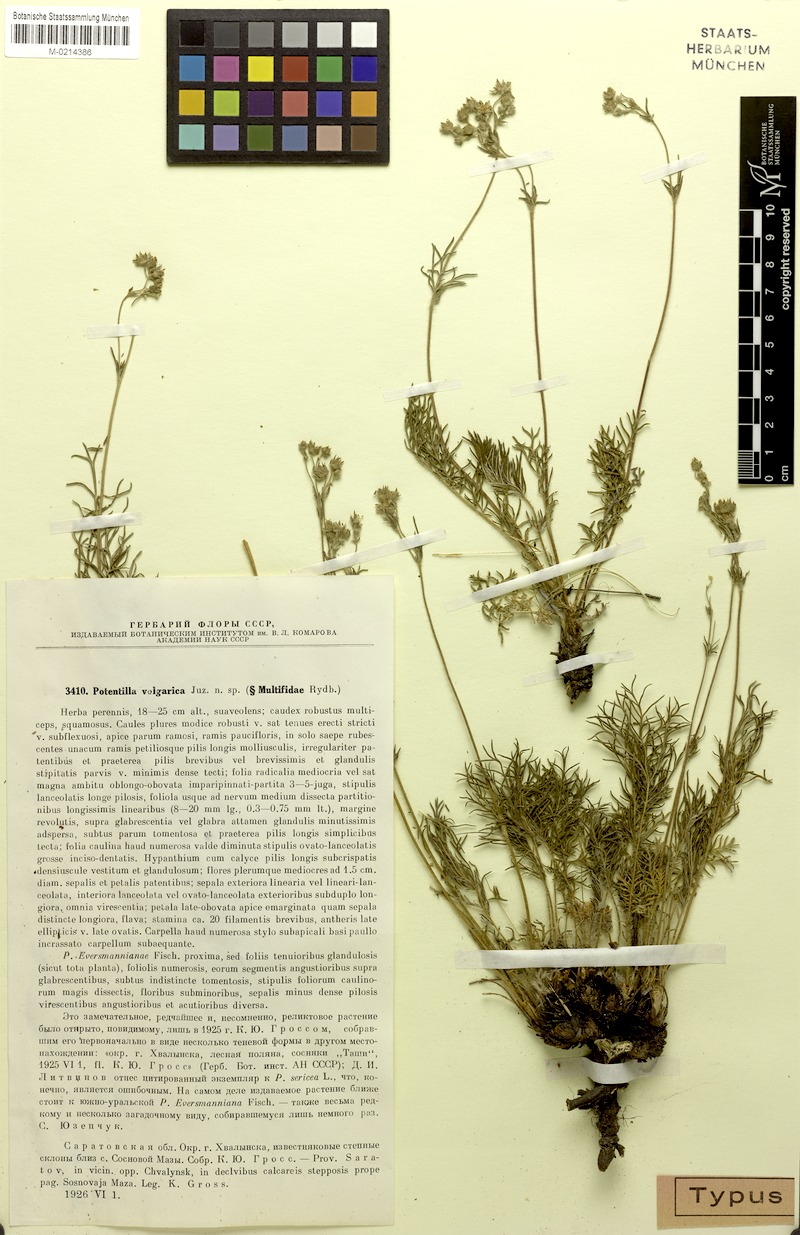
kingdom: Plantae
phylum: Tracheophyta
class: Magnoliopsida
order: Rosales
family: Rosaceae
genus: Potentilla
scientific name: Potentilla volgarica
